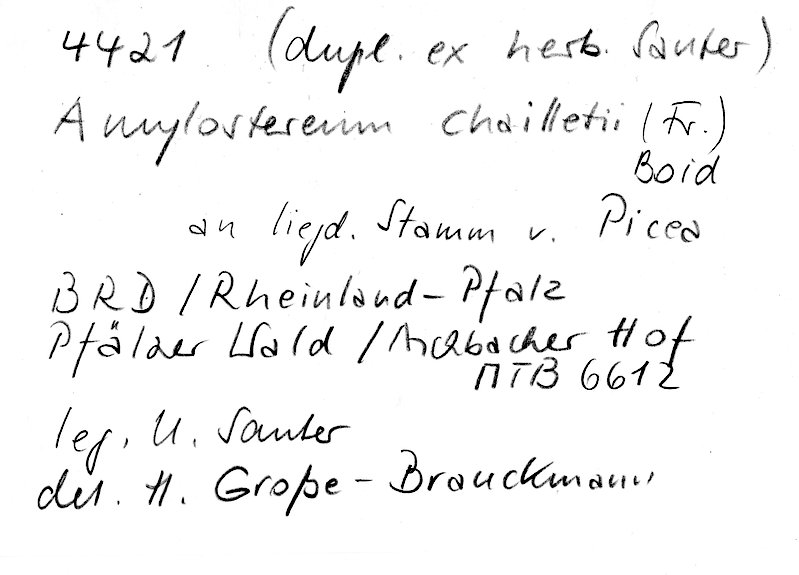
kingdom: Fungi
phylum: Basidiomycota
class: Agaricomycetes
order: Russulales
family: Echinodontiaceae
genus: Amylostereum
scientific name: Amylostereum chailletii
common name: Powdered duster
